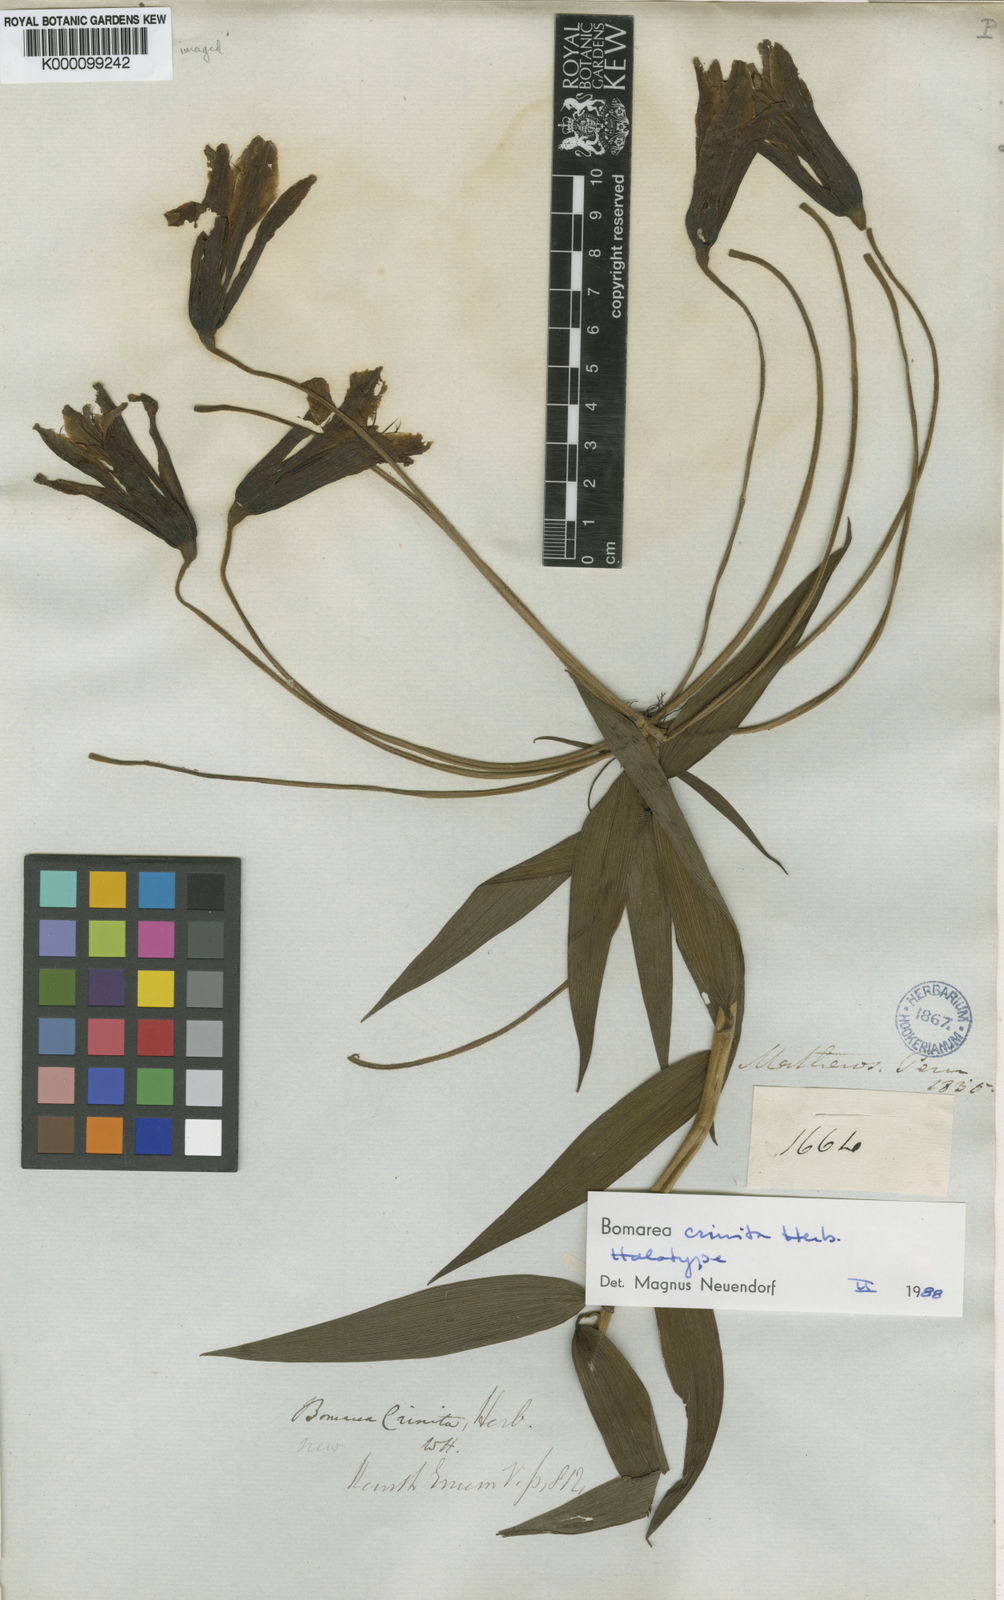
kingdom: Plantae
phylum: Tracheophyta
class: Liliopsida
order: Liliales
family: Alstroemeriaceae
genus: Bomarea
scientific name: Bomarea crinita
